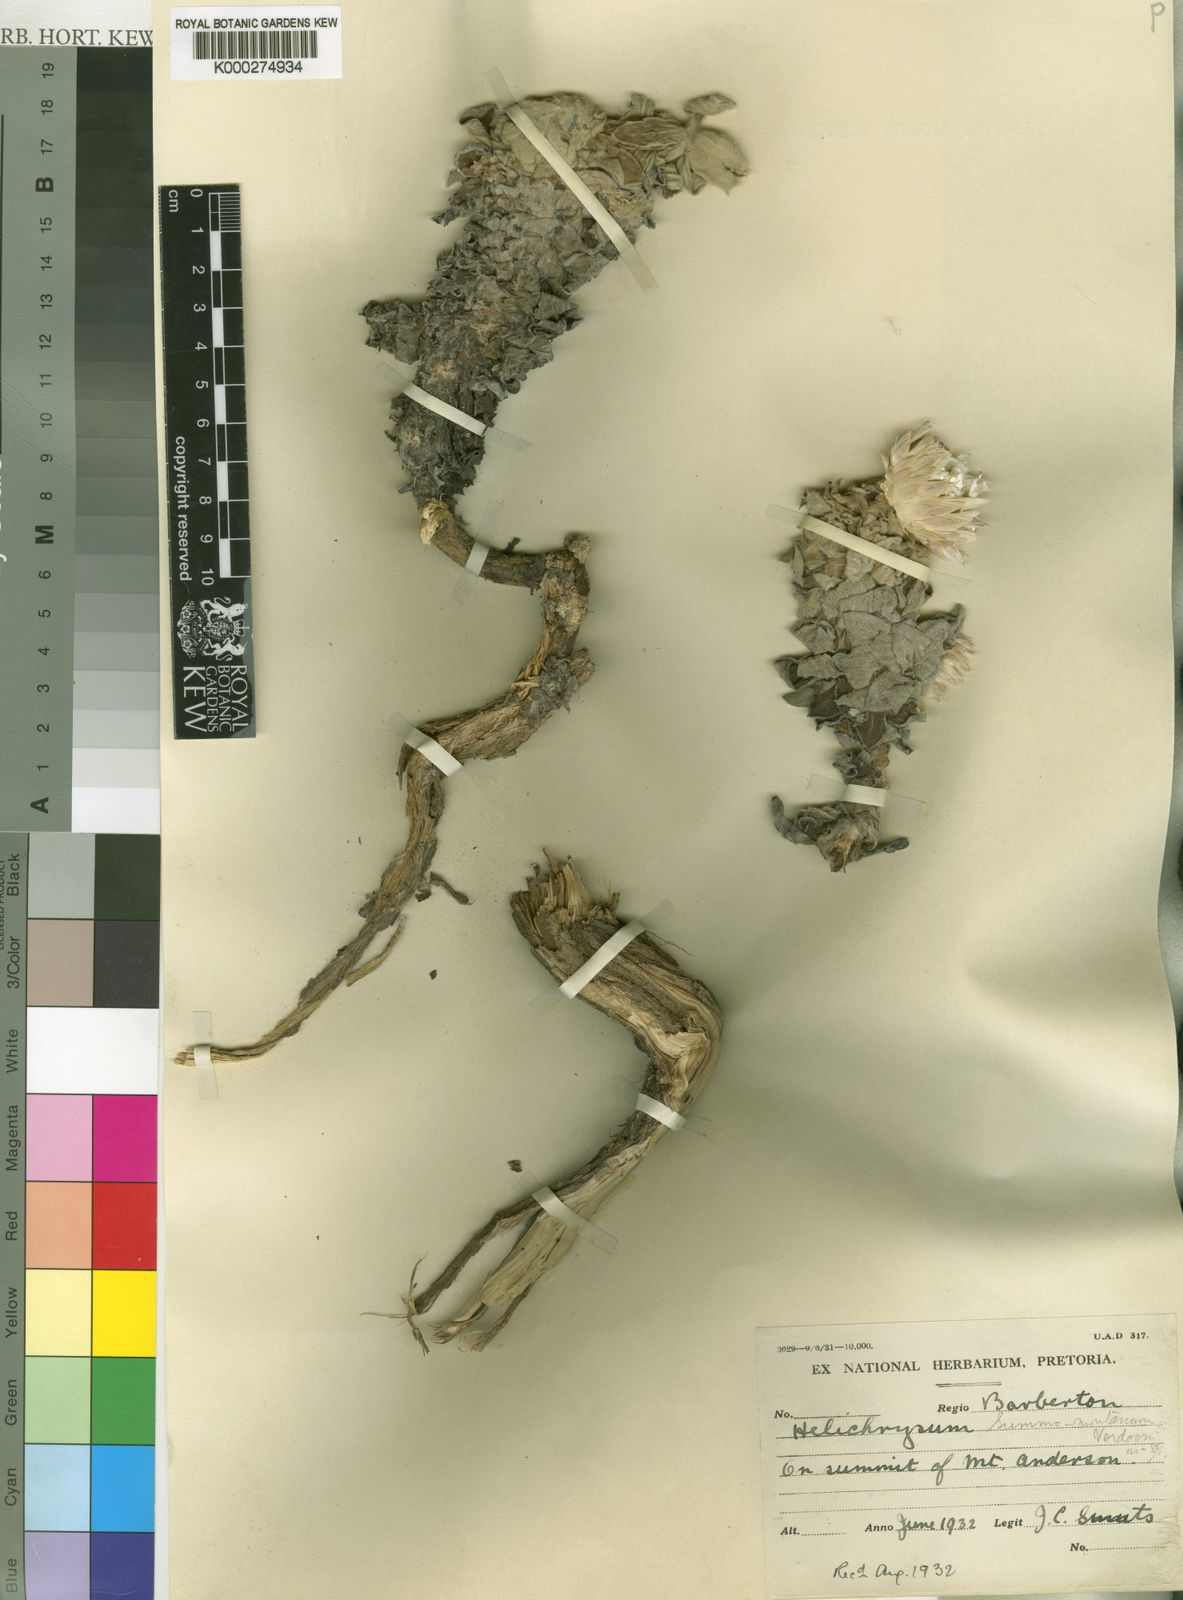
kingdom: Plantae
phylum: Tracheophyta
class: Magnoliopsida
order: Asterales
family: Asteraceae
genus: Helichrysum
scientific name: Helichrysum summo-montanum
